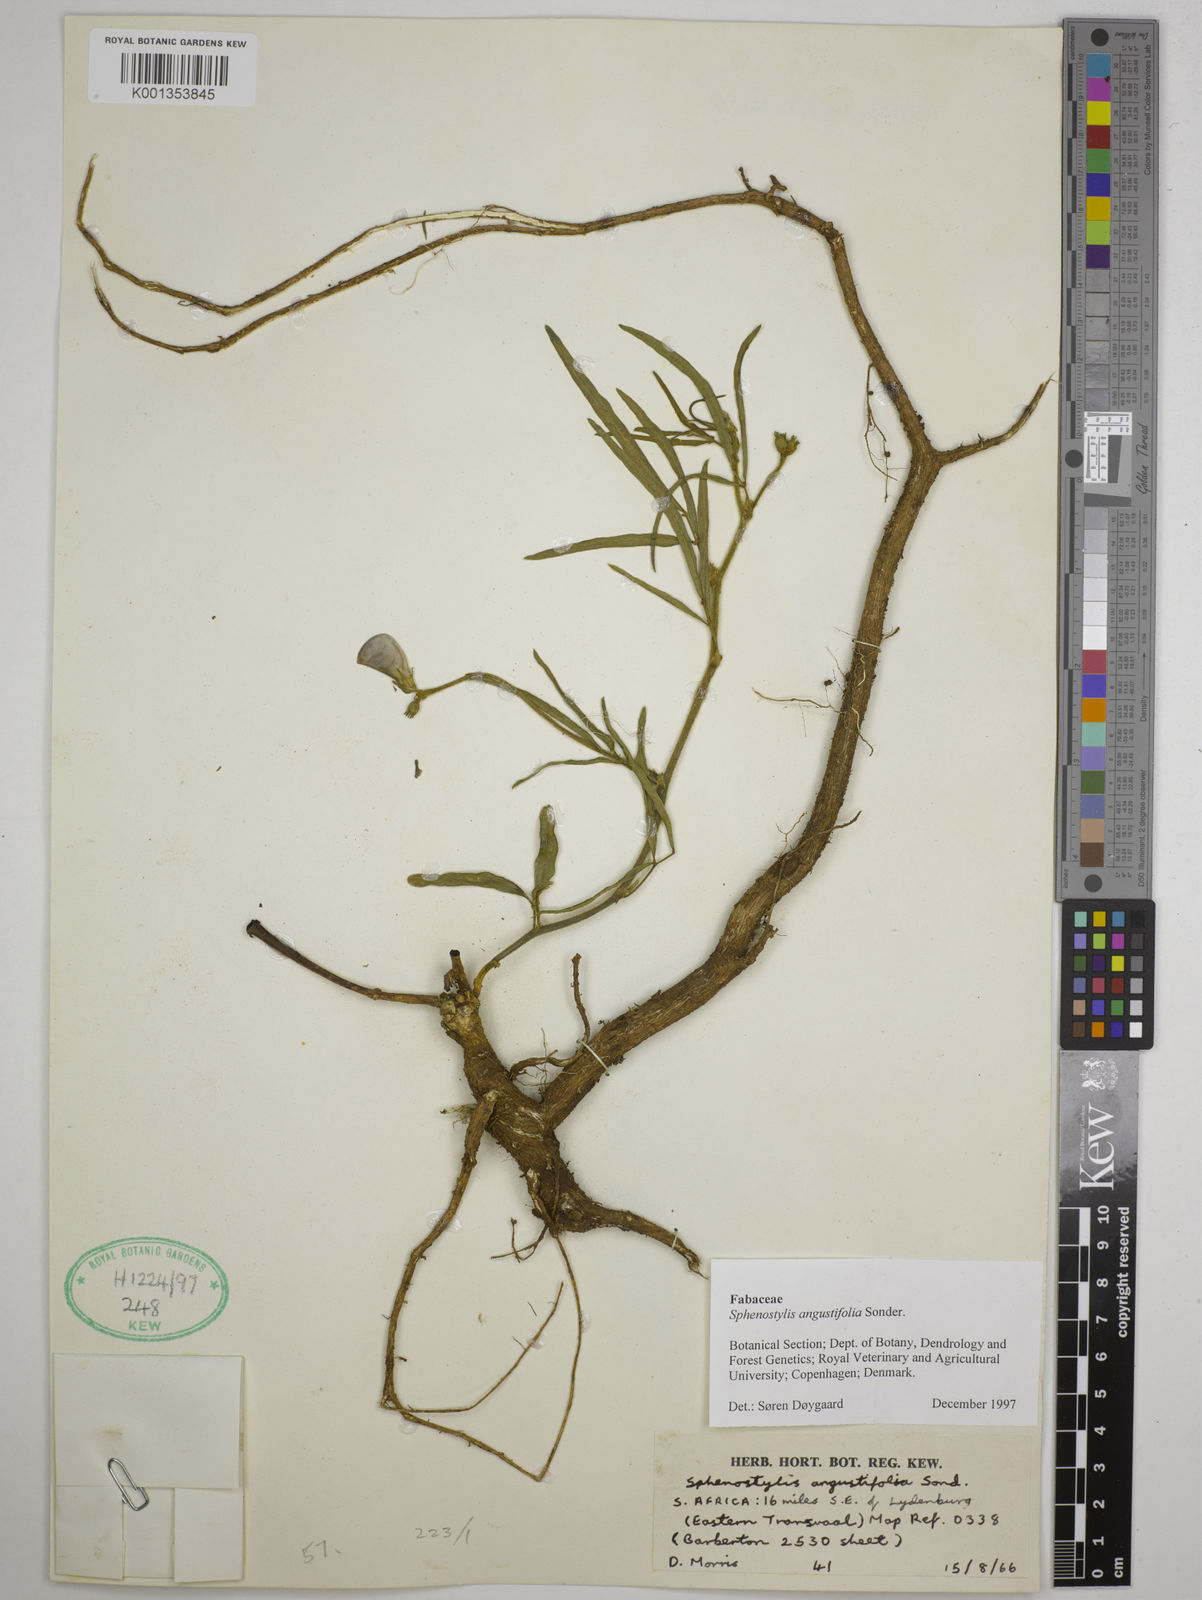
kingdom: Plantae
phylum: Tracheophyta
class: Magnoliopsida
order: Fabales
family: Fabaceae
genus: Sphenostylis
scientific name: Sphenostylis angustifolia
